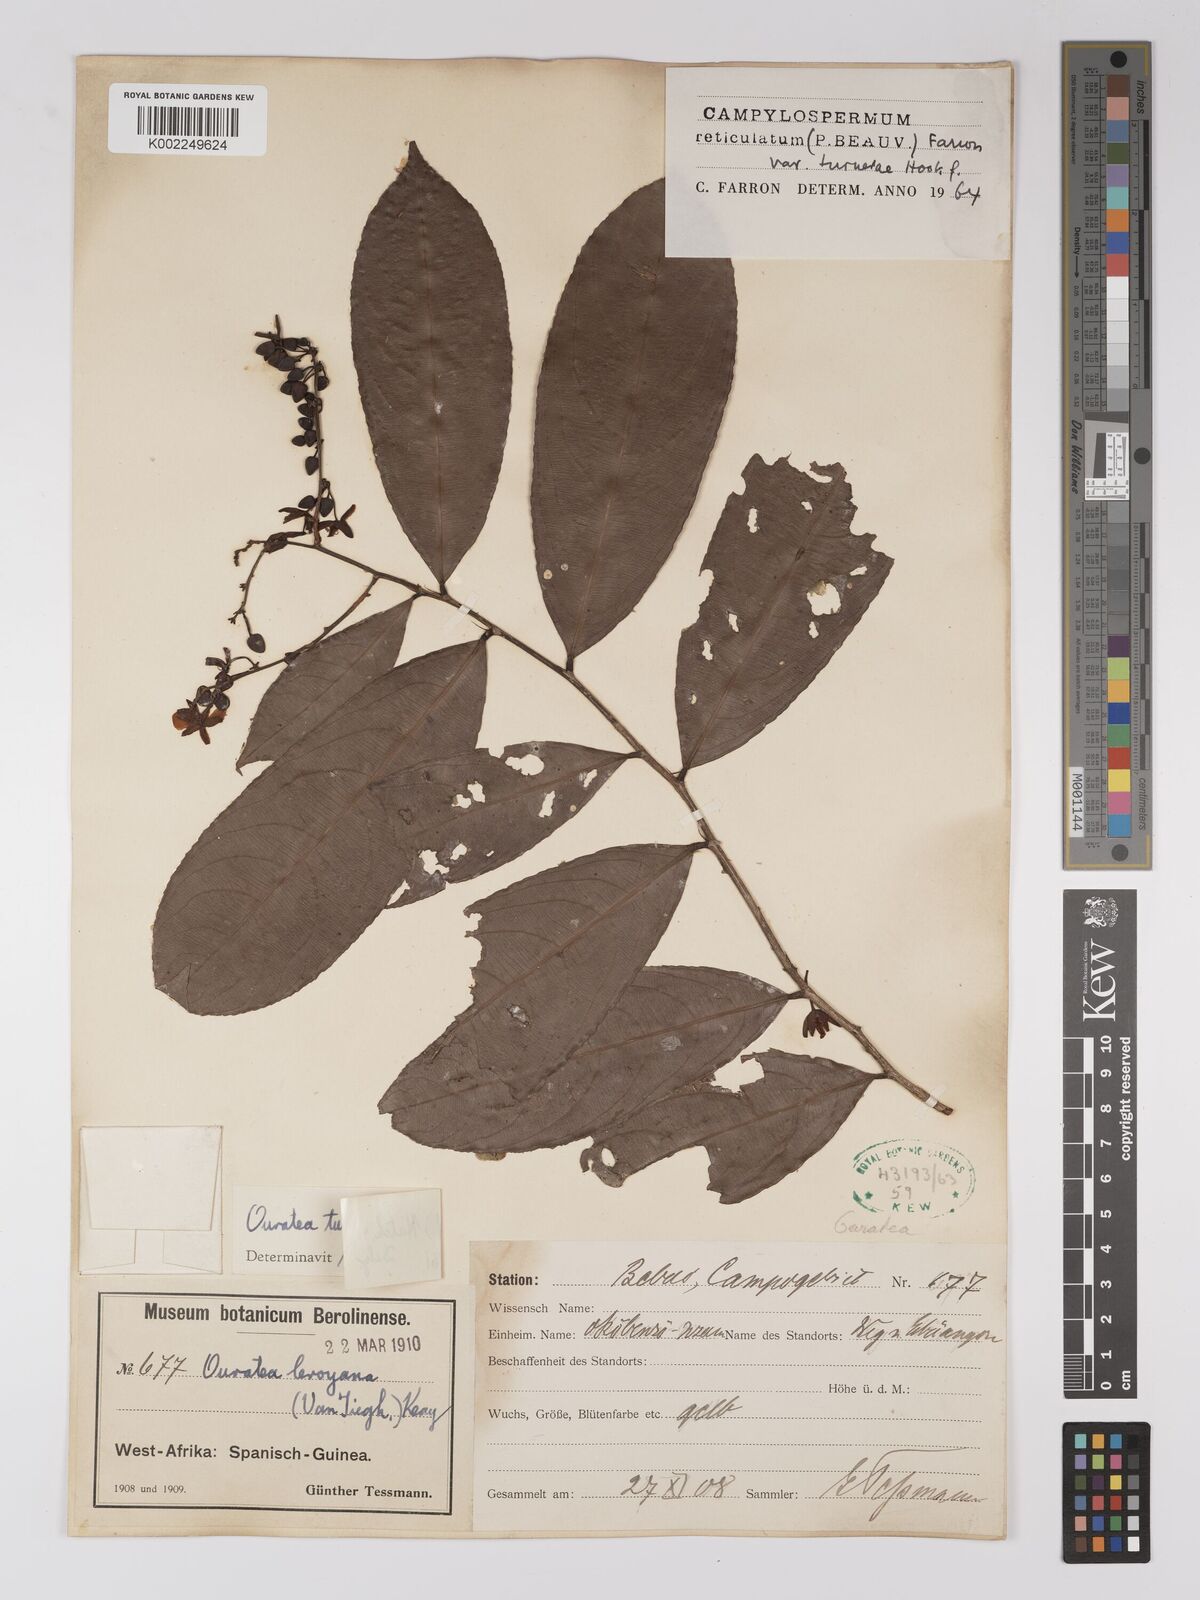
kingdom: Plantae
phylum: Tracheophyta
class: Magnoliopsida
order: Malpighiales
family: Ochnaceae
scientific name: Ochnaceae
